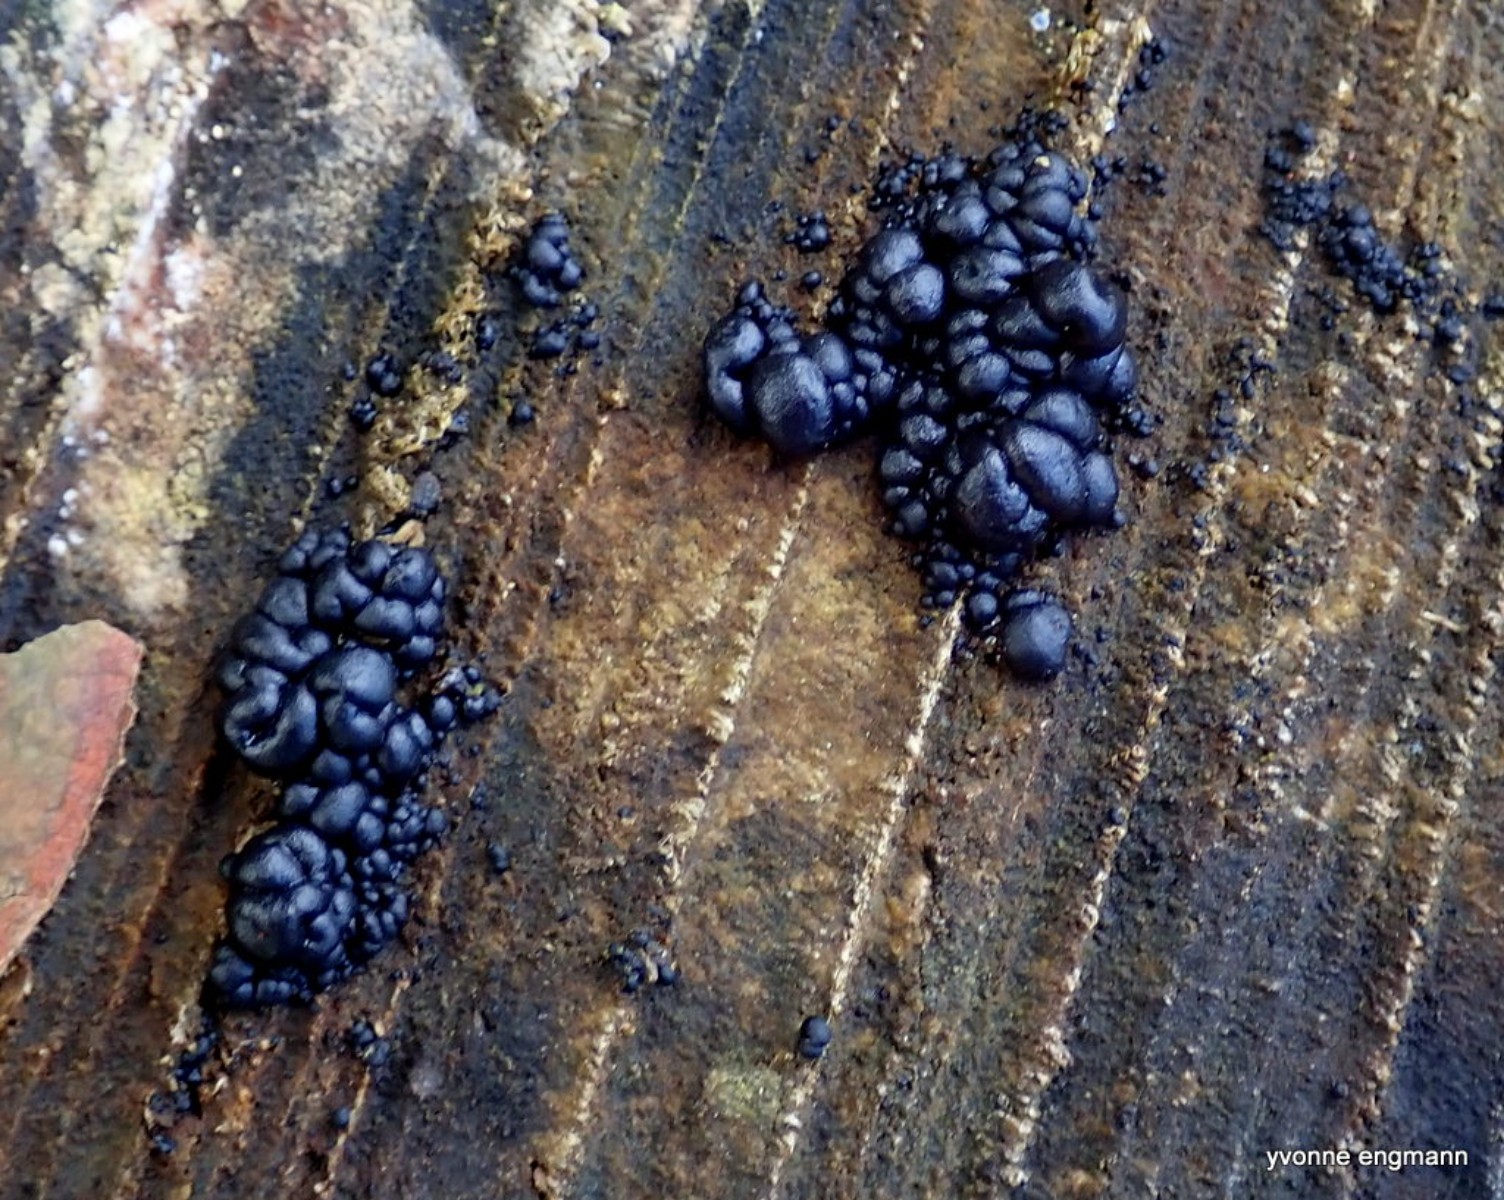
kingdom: Fungi
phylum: Basidiomycota
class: Agaricomycetes
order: Auriculariales
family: Auriculariaceae
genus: Exidia
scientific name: Exidia nigricans
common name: almindelig bævretop
